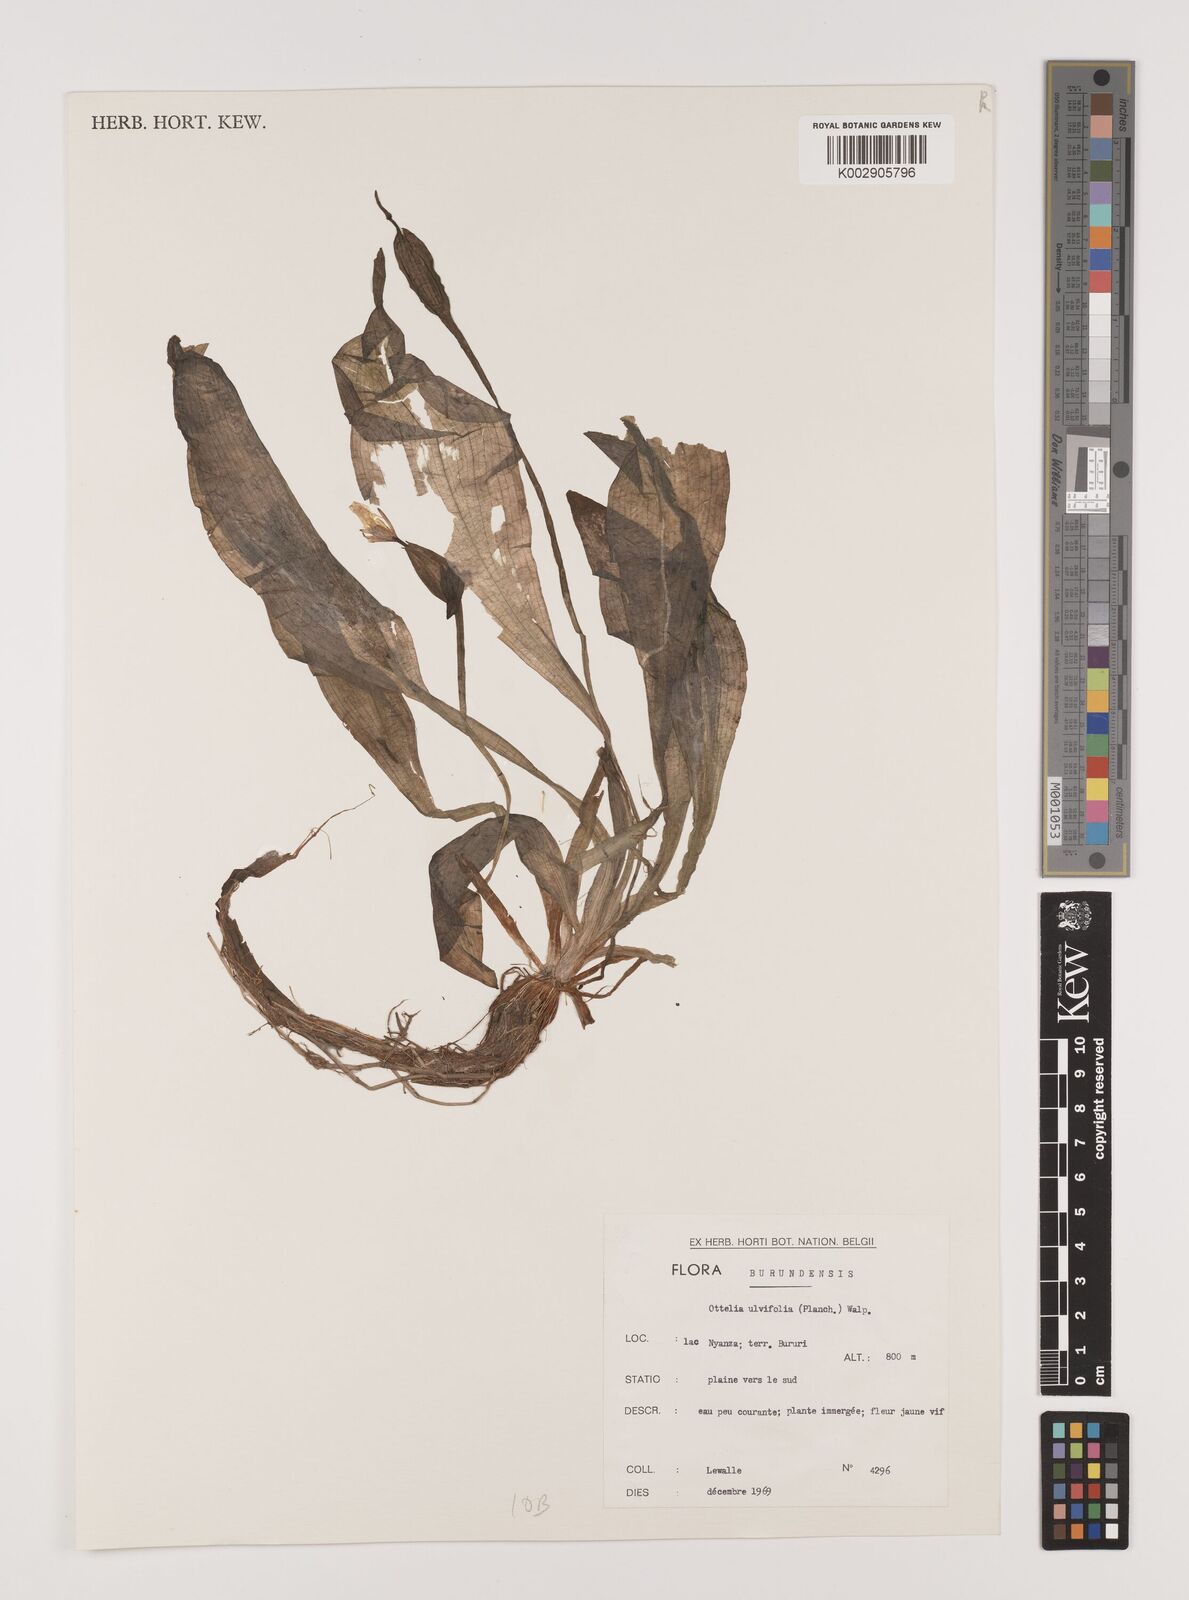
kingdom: Plantae
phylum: Tracheophyta
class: Liliopsida
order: Alismatales
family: Hydrocharitaceae
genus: Ottelia
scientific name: Ottelia ulvifolia
